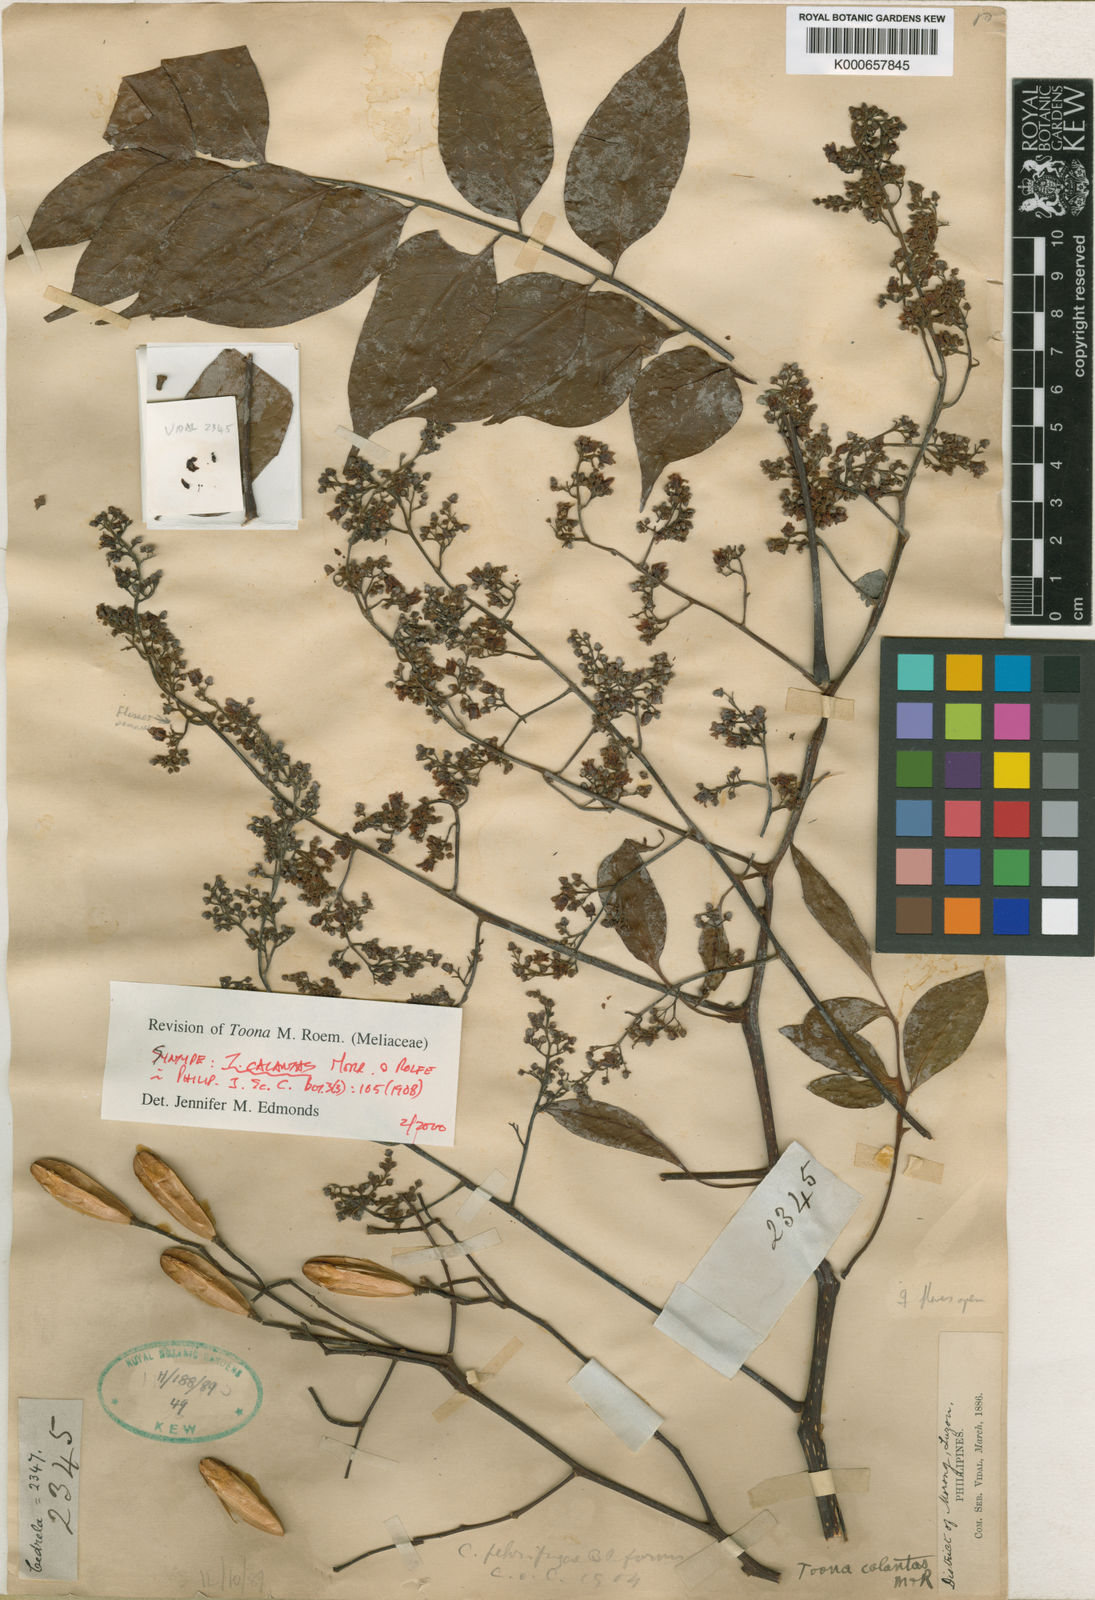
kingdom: Plantae
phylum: Tracheophyta
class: Magnoliopsida
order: Sapindales
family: Meliaceae
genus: Toona
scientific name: Toona calantas
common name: Philippine cedar
